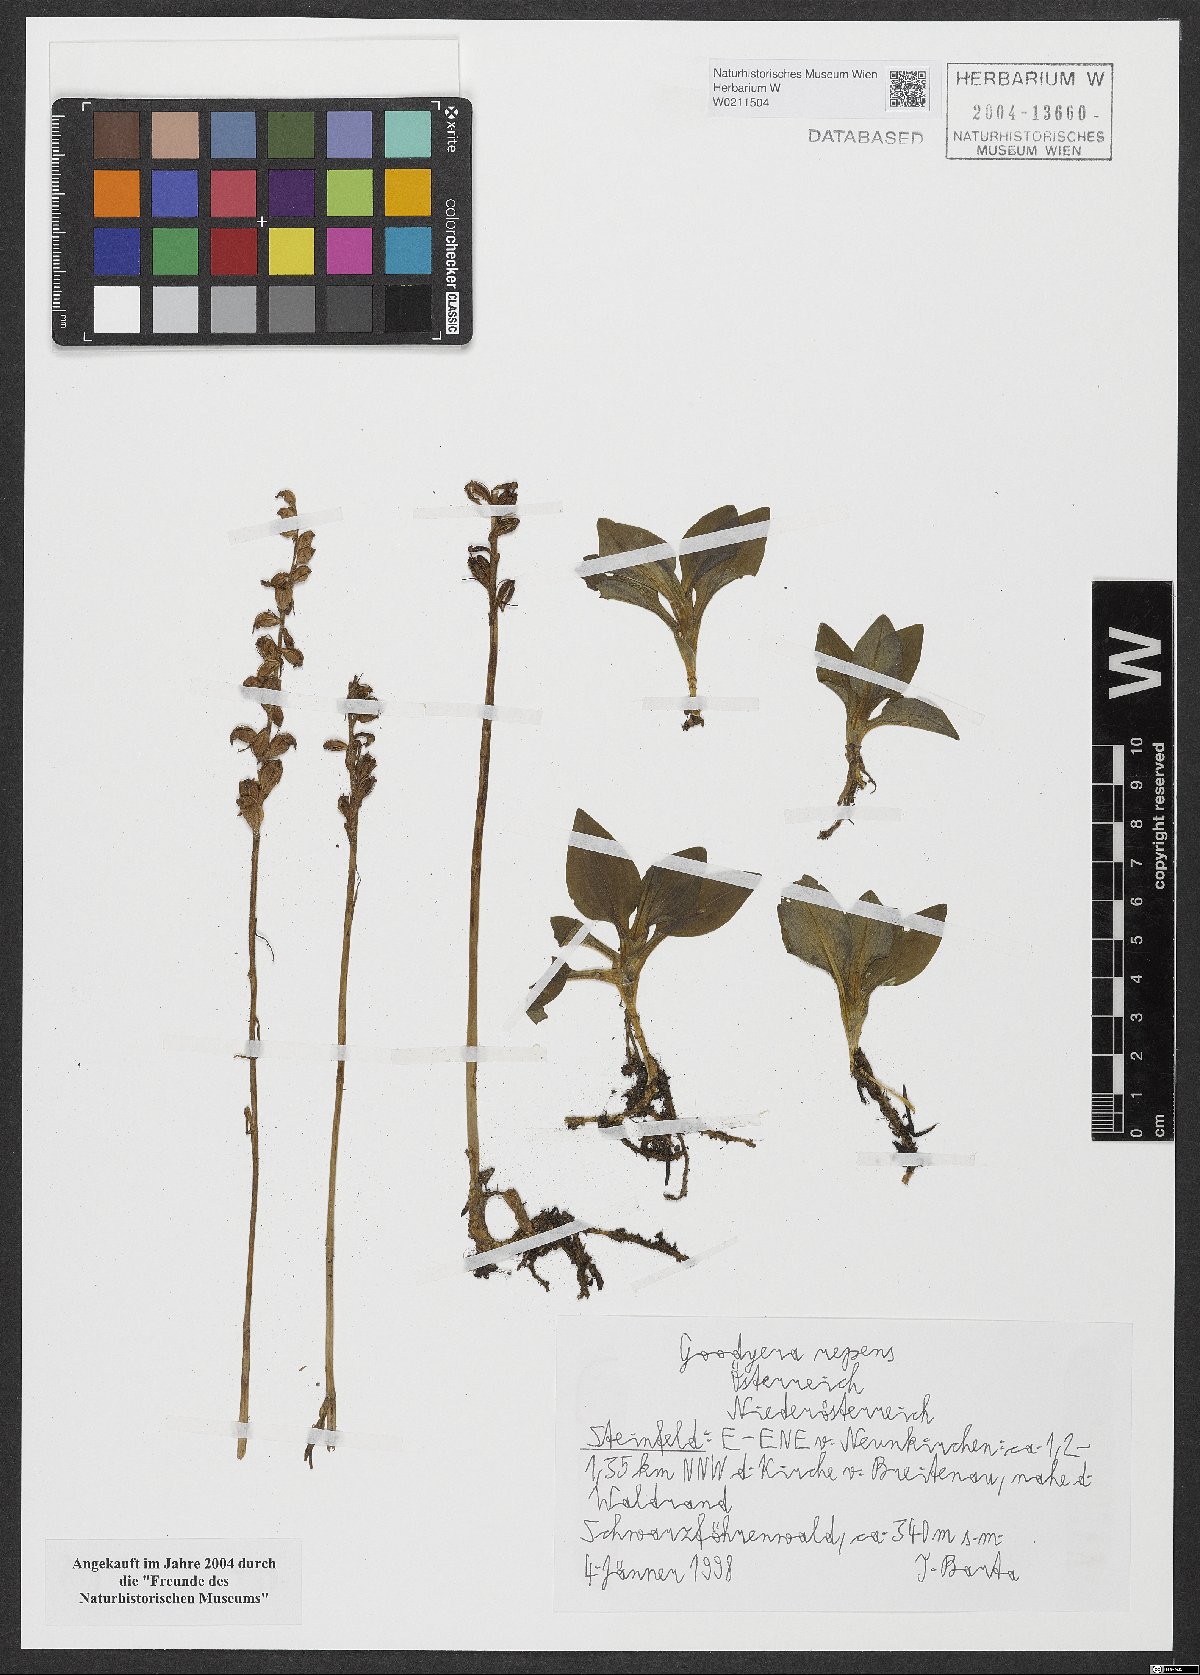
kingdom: Plantae
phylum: Tracheophyta
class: Liliopsida
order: Asparagales
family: Orchidaceae
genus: Goodyera
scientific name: Goodyera repens
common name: Creeping lady's-tresses
